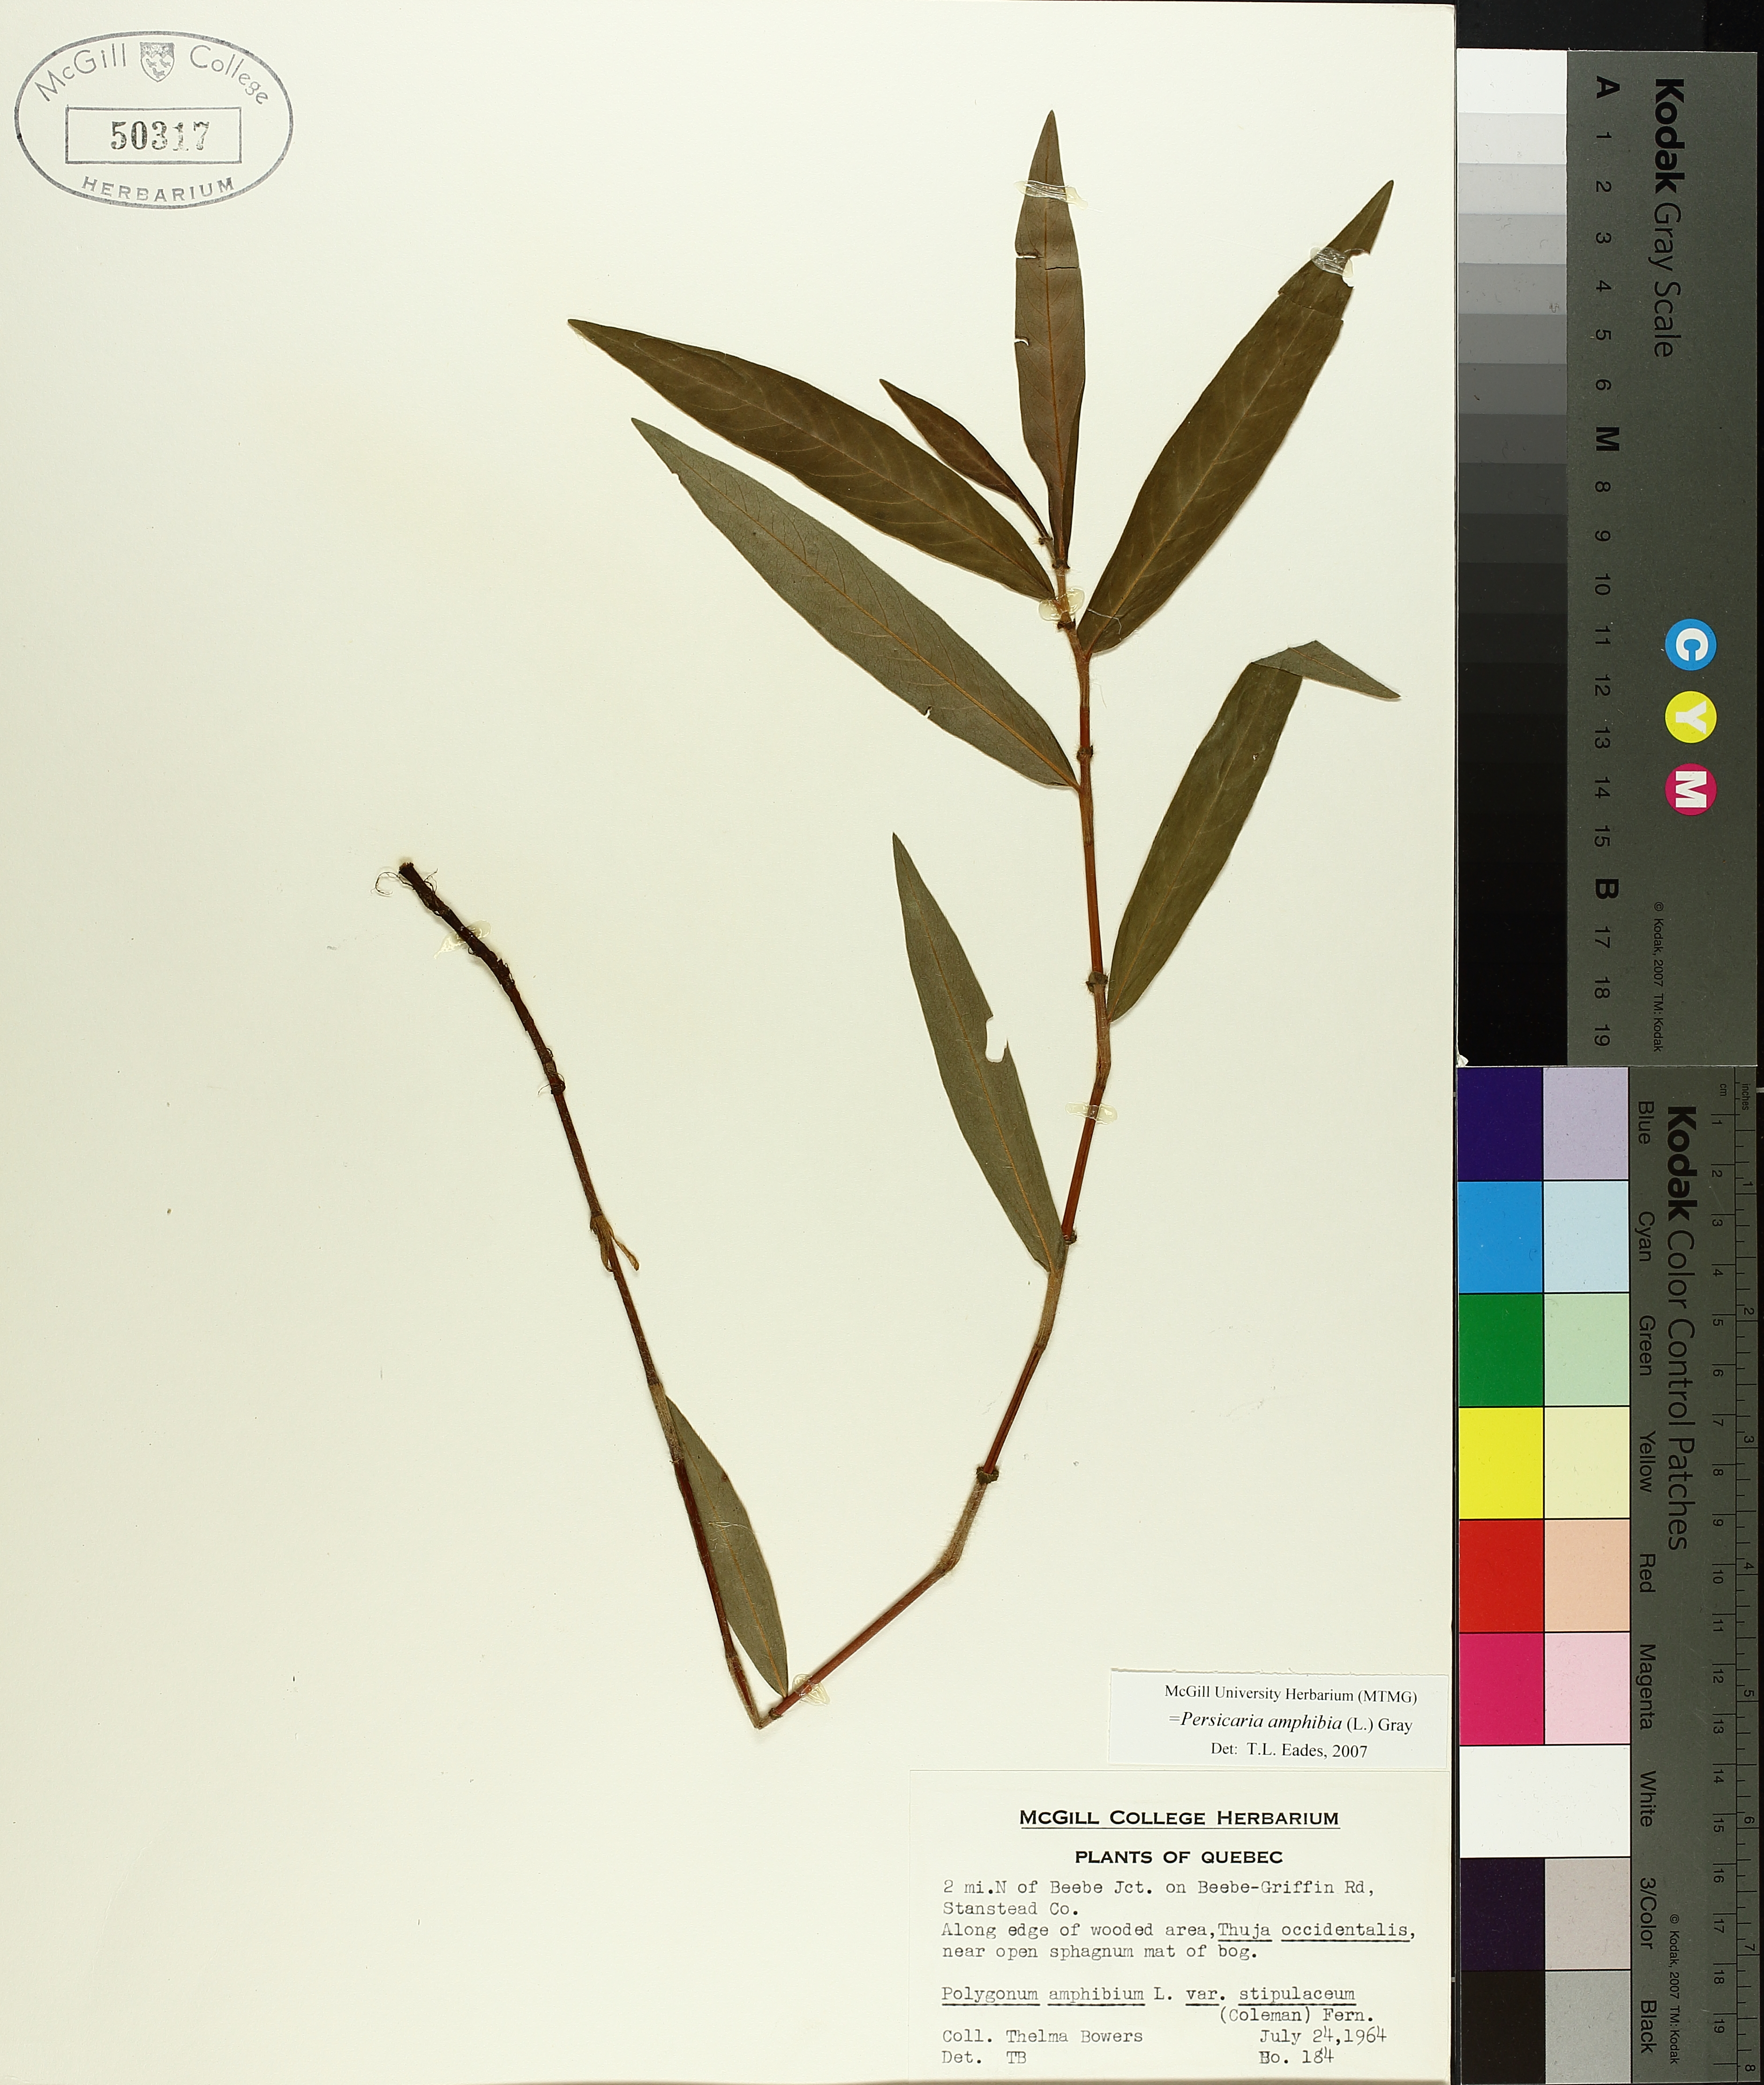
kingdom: Plantae
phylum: Tracheophyta
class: Magnoliopsida
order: Caryophyllales
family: Polygonaceae
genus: Persicaria
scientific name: Persicaria amphibia
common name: Amphibious bistort
